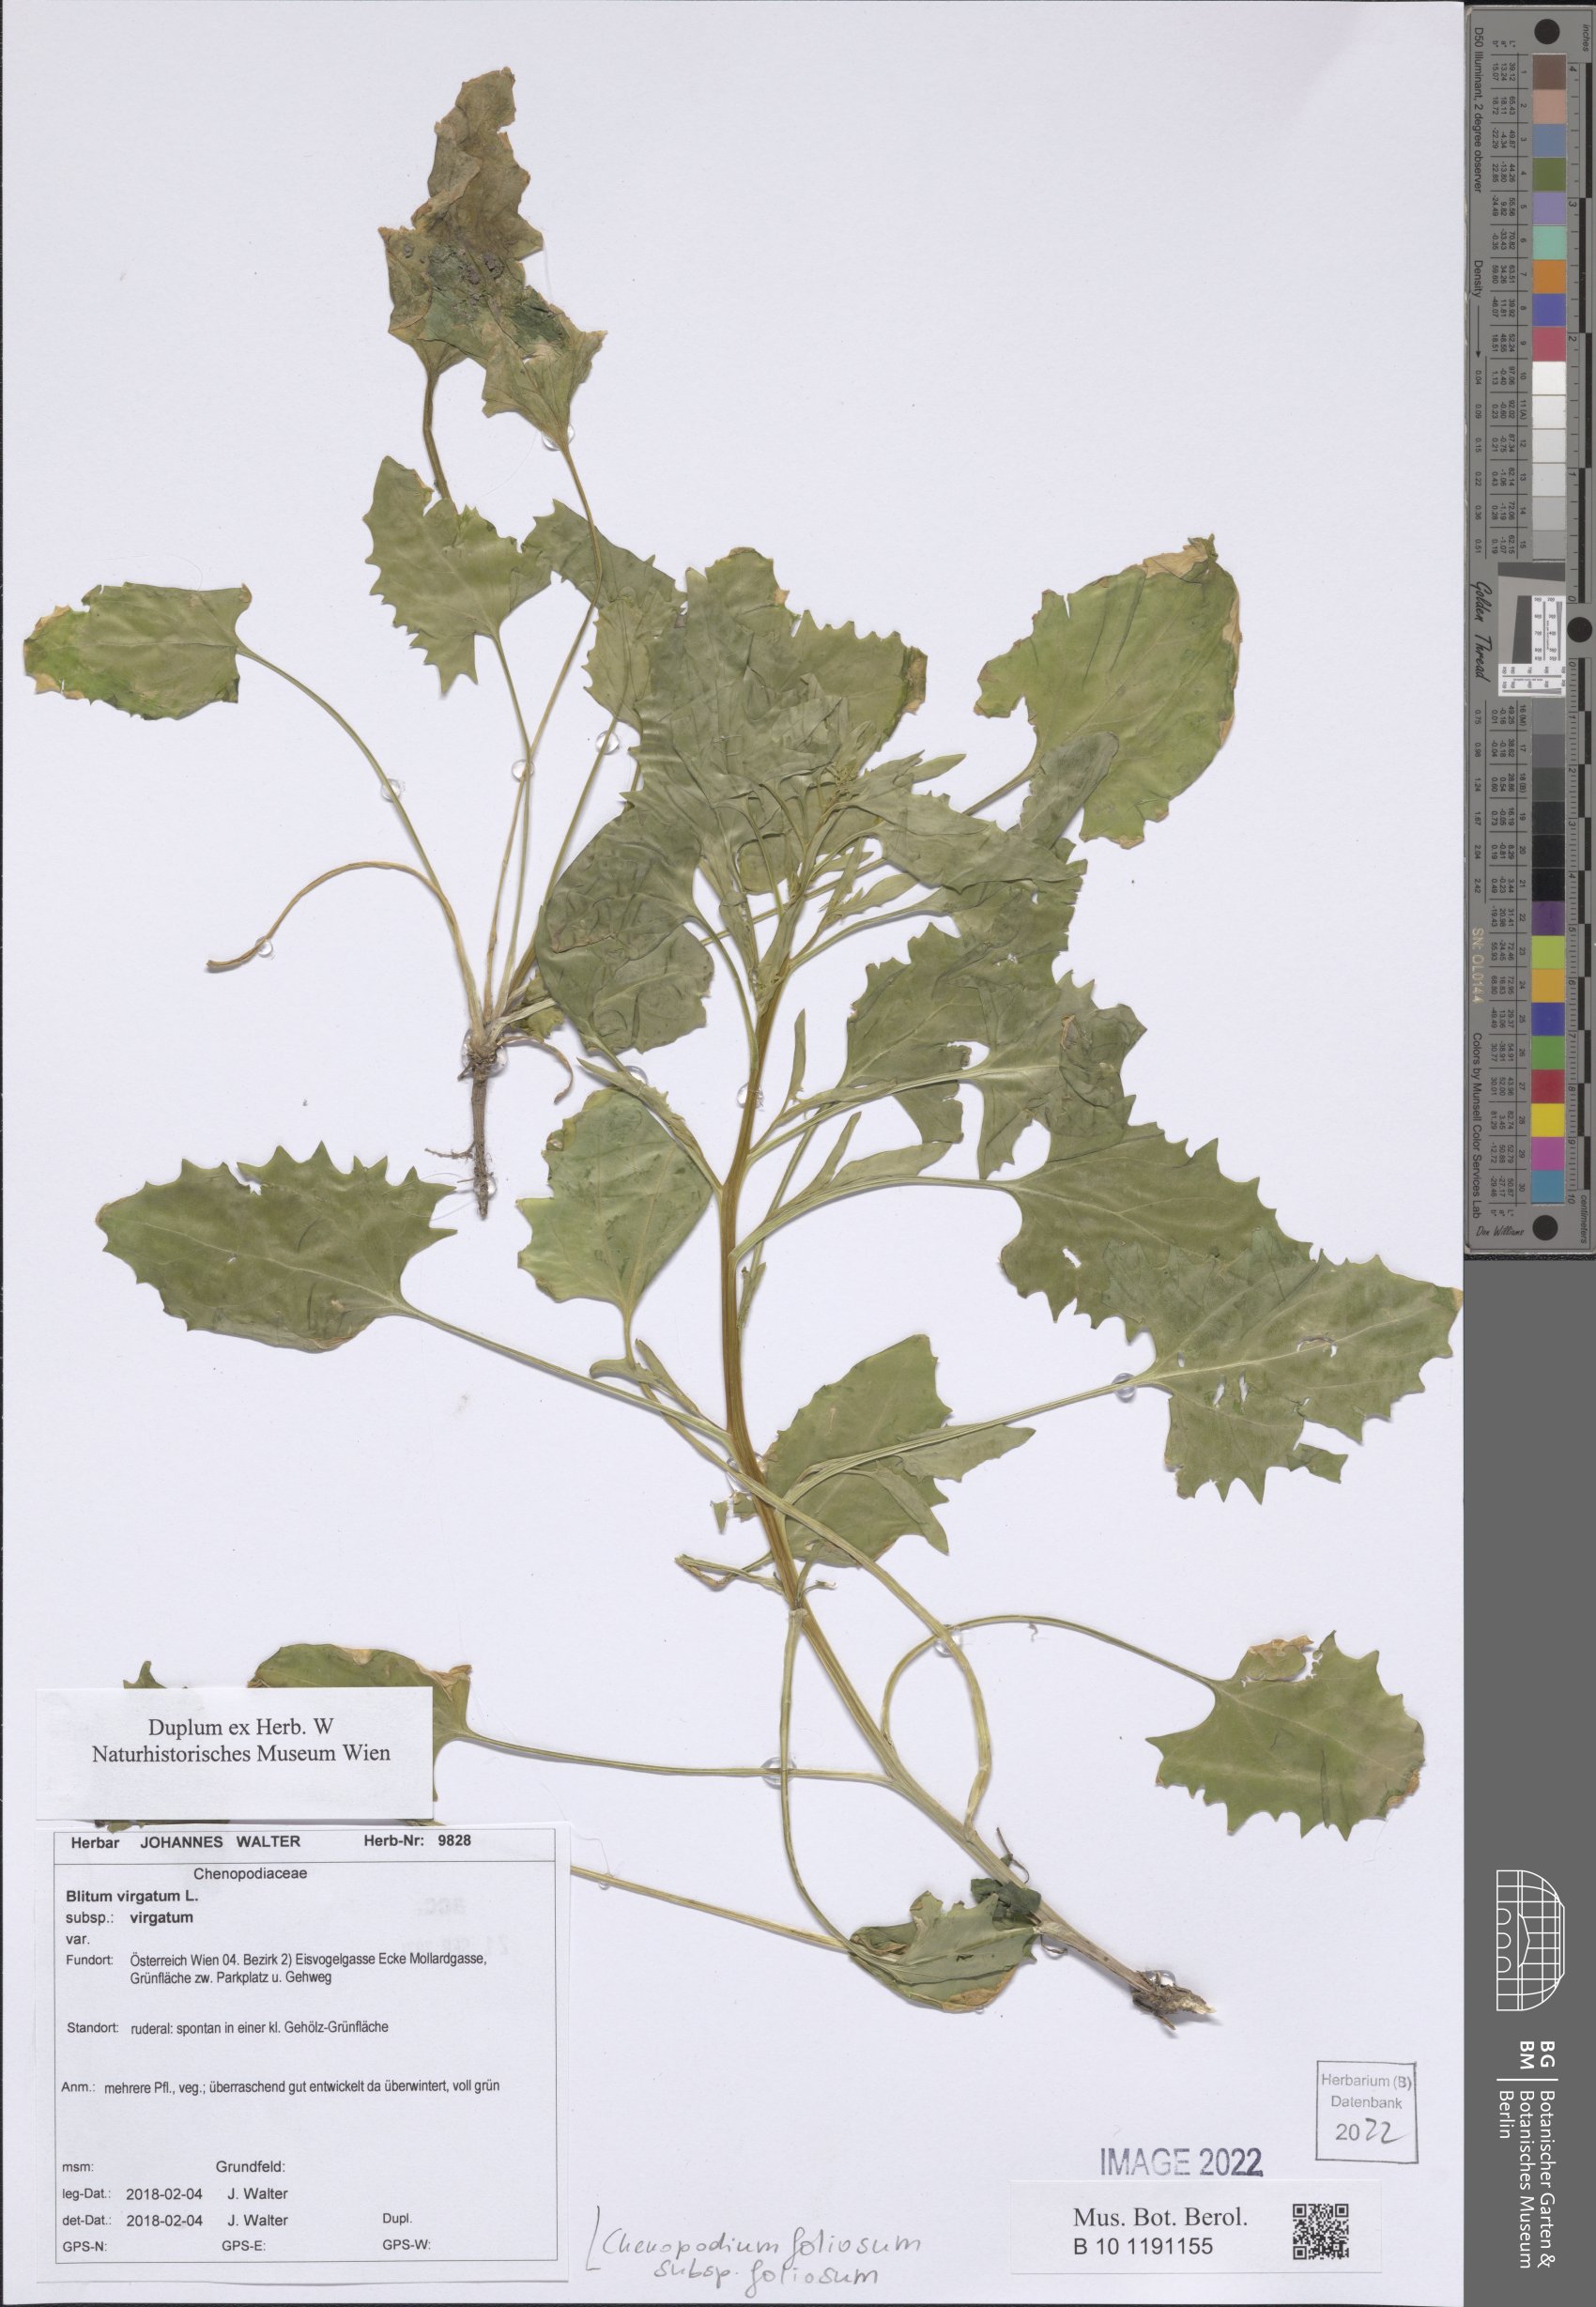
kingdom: Plantae
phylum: Tracheophyta
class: Magnoliopsida
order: Caryophyllales
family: Amaranthaceae
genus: Blitum
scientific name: Blitum virgatum
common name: Strawberry goosefoot
